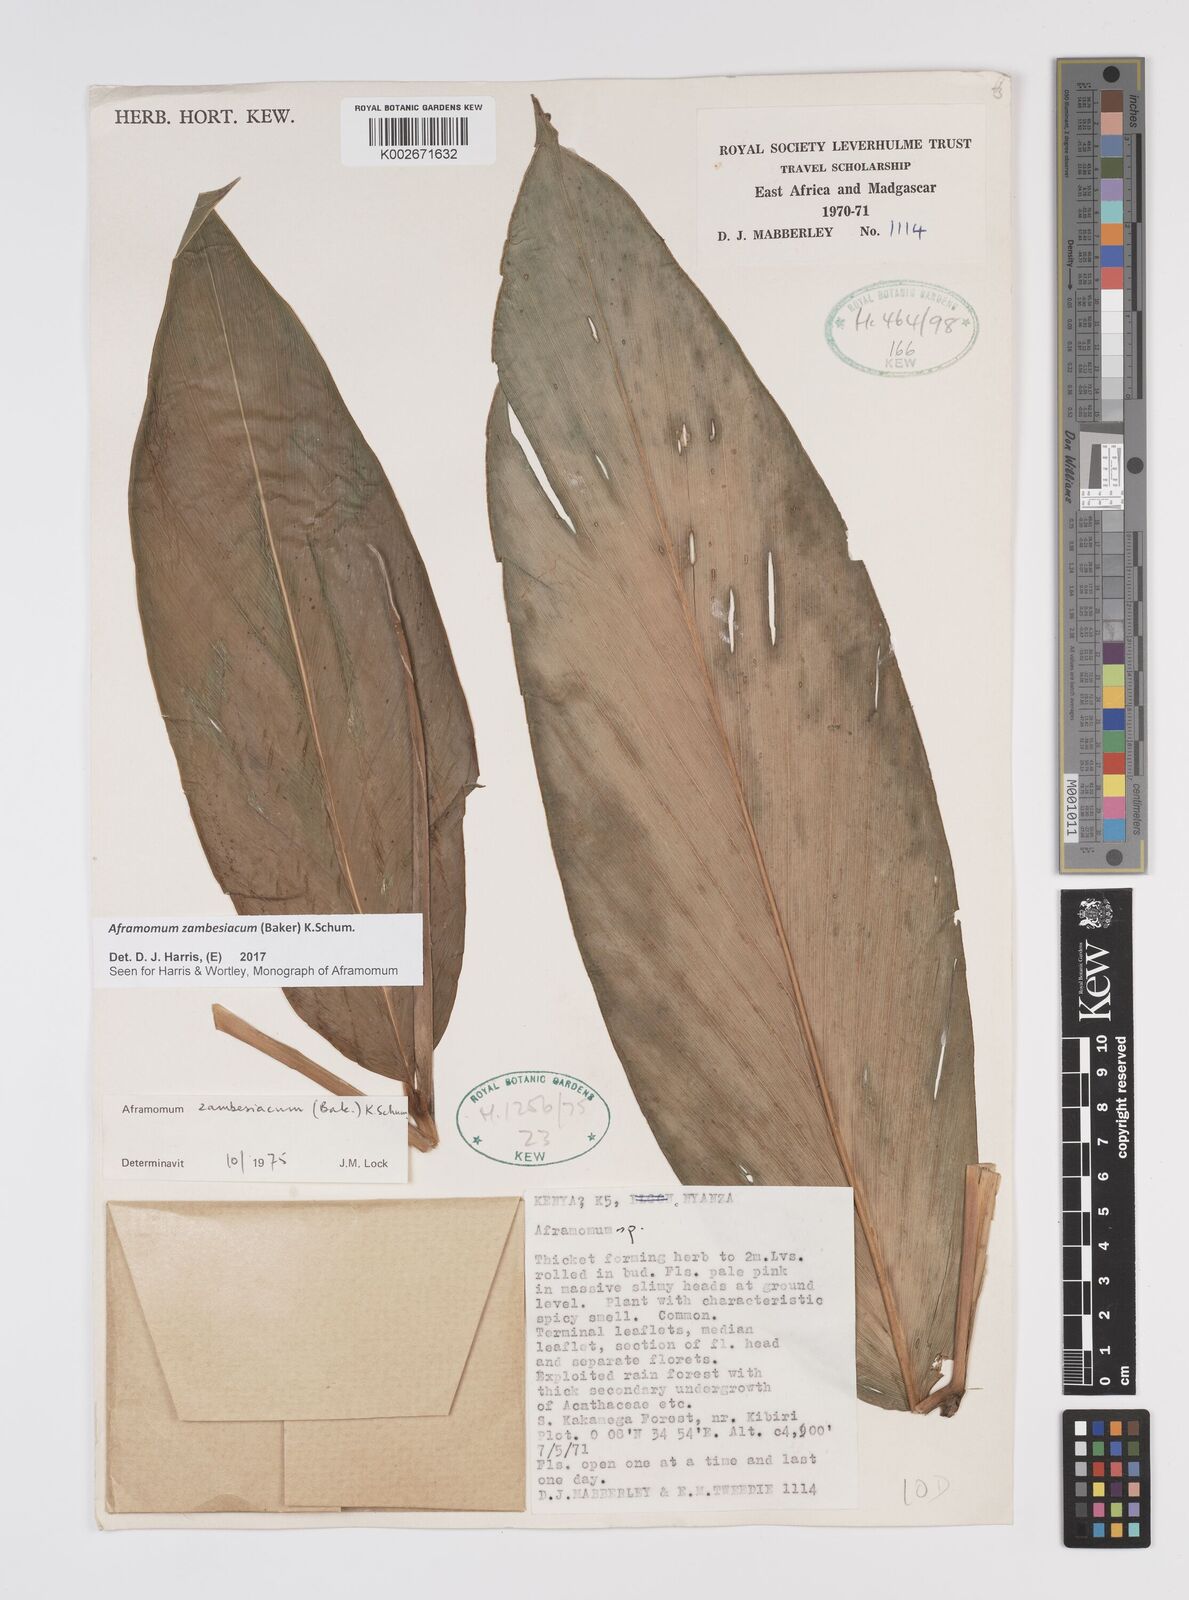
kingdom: Plantae
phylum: Tracheophyta
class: Liliopsida
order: Zingiberales
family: Zingiberaceae
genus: Aframomum
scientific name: Aframomum zambesiacum
